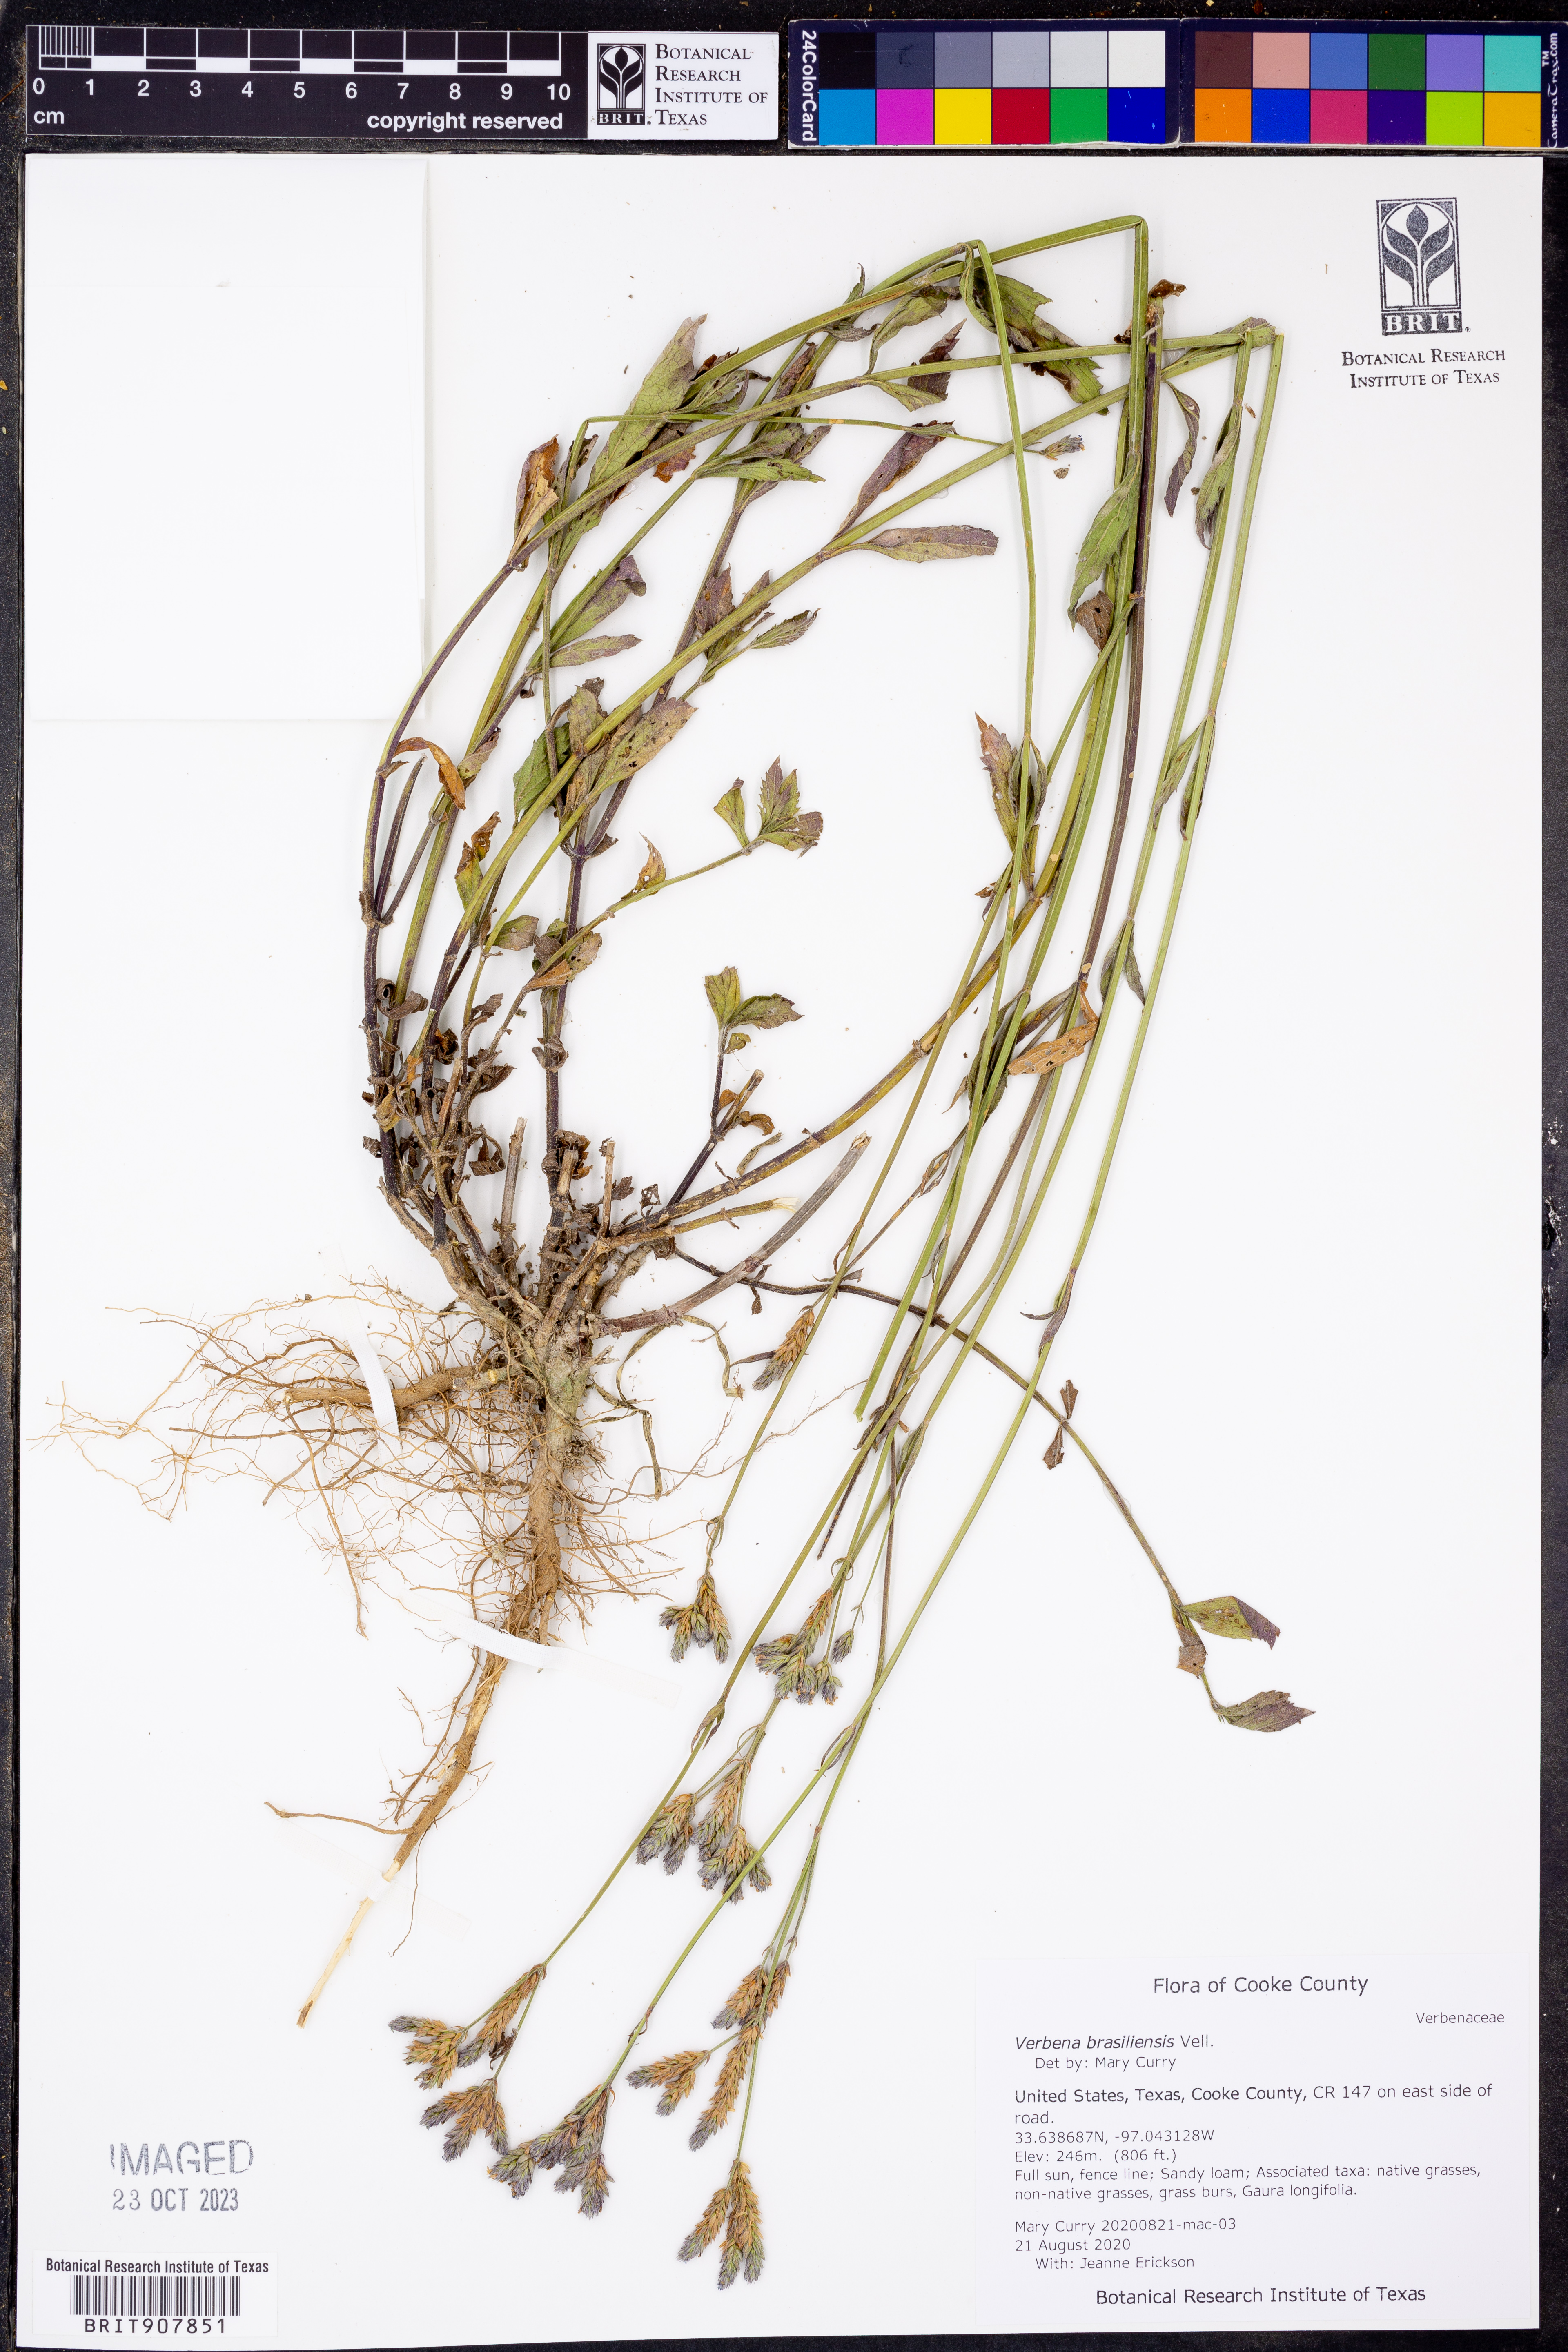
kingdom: Plantae
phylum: Tracheophyta
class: Magnoliopsida
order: Lamiales
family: Verbenaceae
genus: Verbena
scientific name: Verbena brasiliensis
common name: Brazilian vervain
